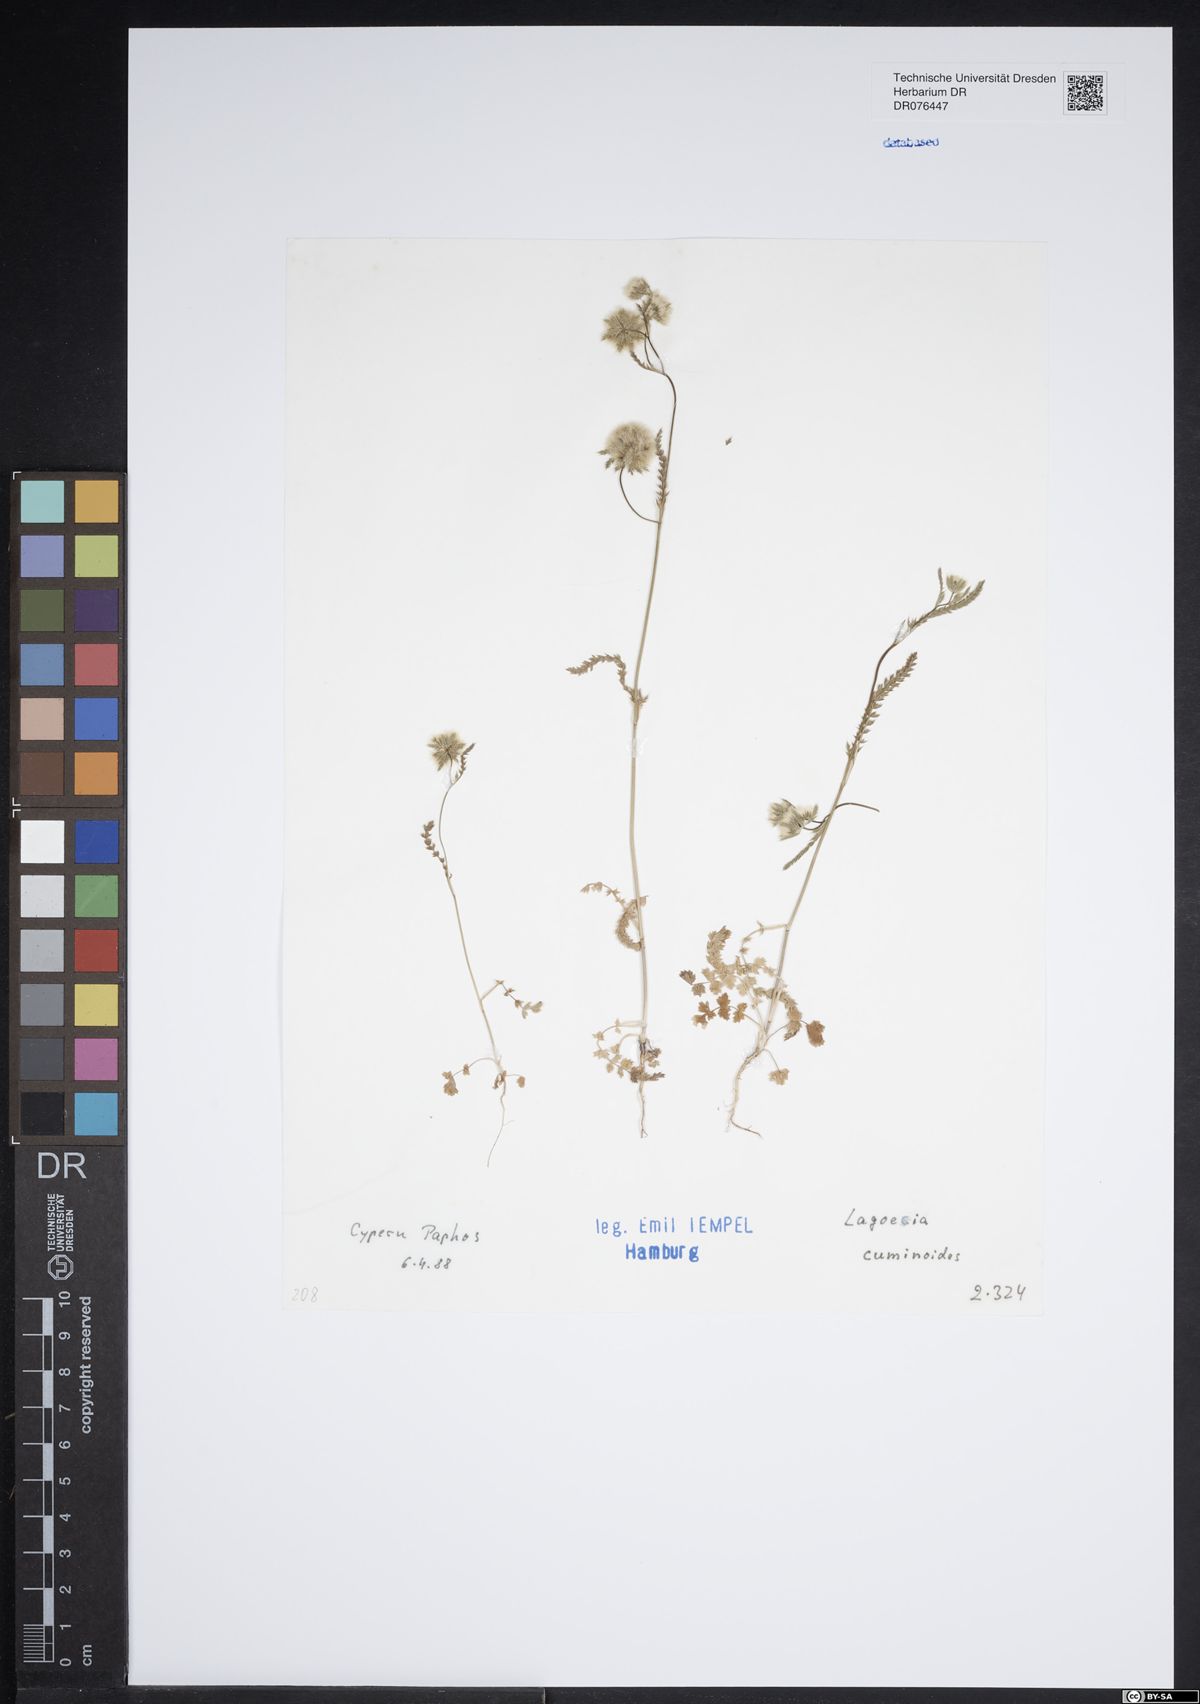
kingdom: Plantae
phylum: Tracheophyta
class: Magnoliopsida
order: Apiales
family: Apiaceae
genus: Lagoecia
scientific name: Lagoecia cuminoides
